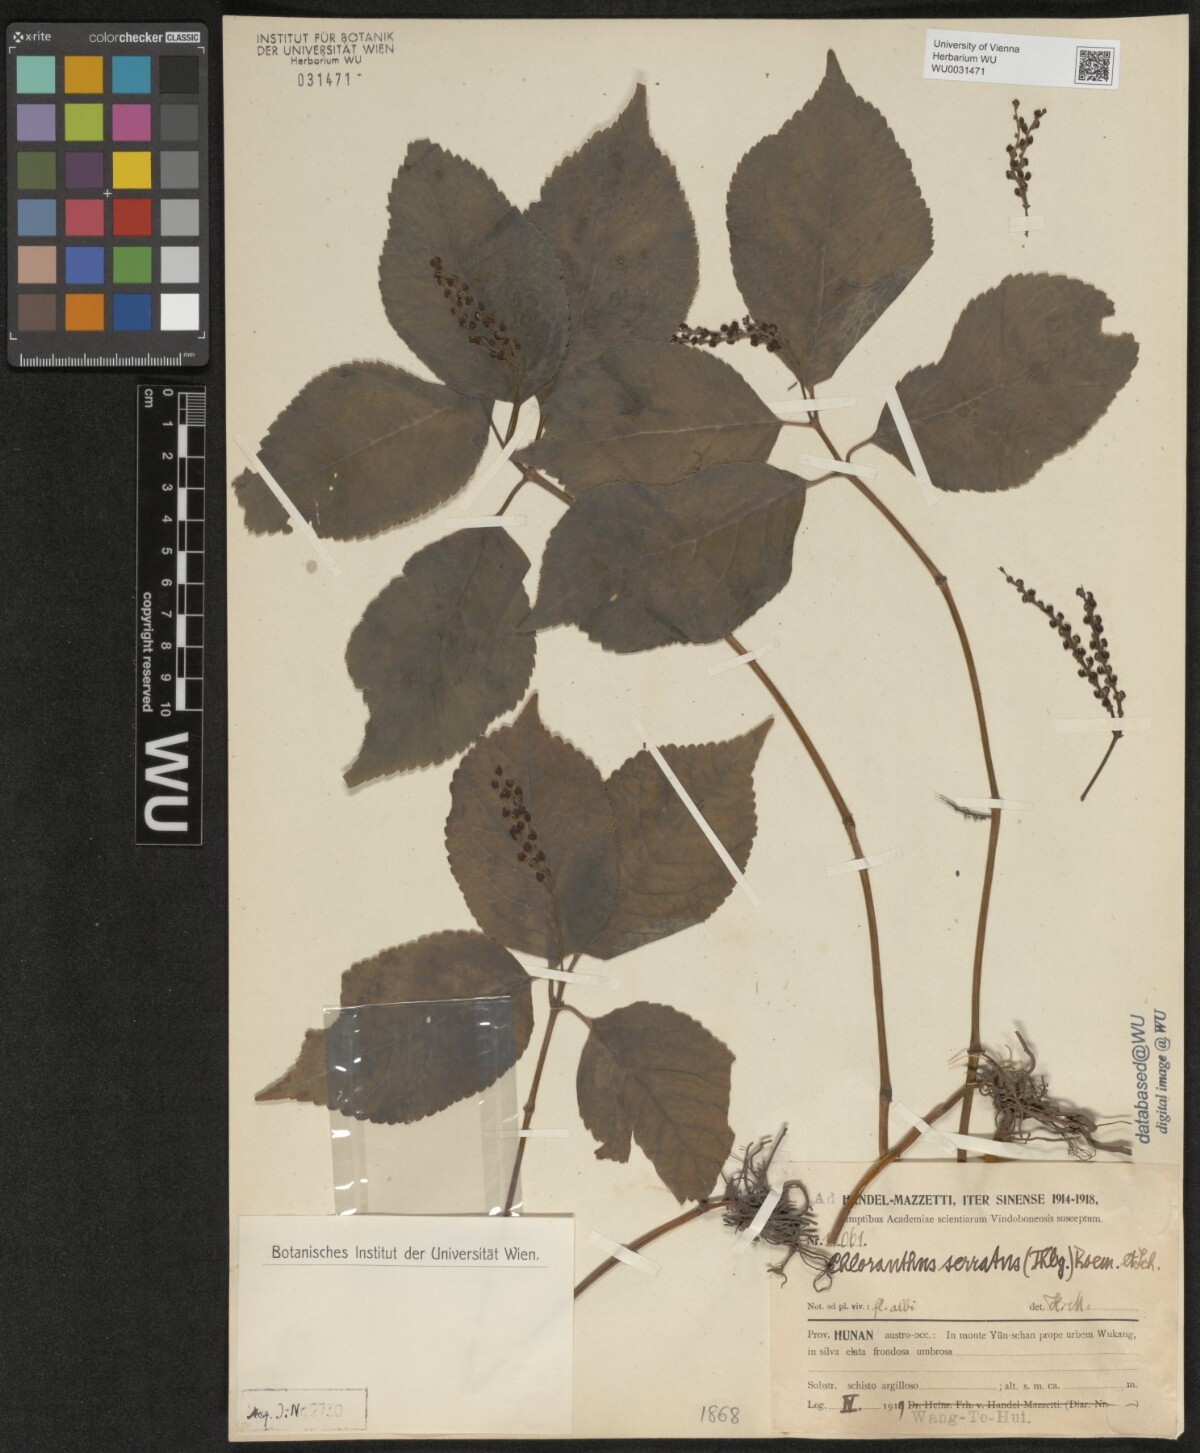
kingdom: Plantae
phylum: Tracheophyta
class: Magnoliopsida
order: Chloranthales
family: Chloranthaceae
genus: Chloranthus
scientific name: Chloranthus serratus
